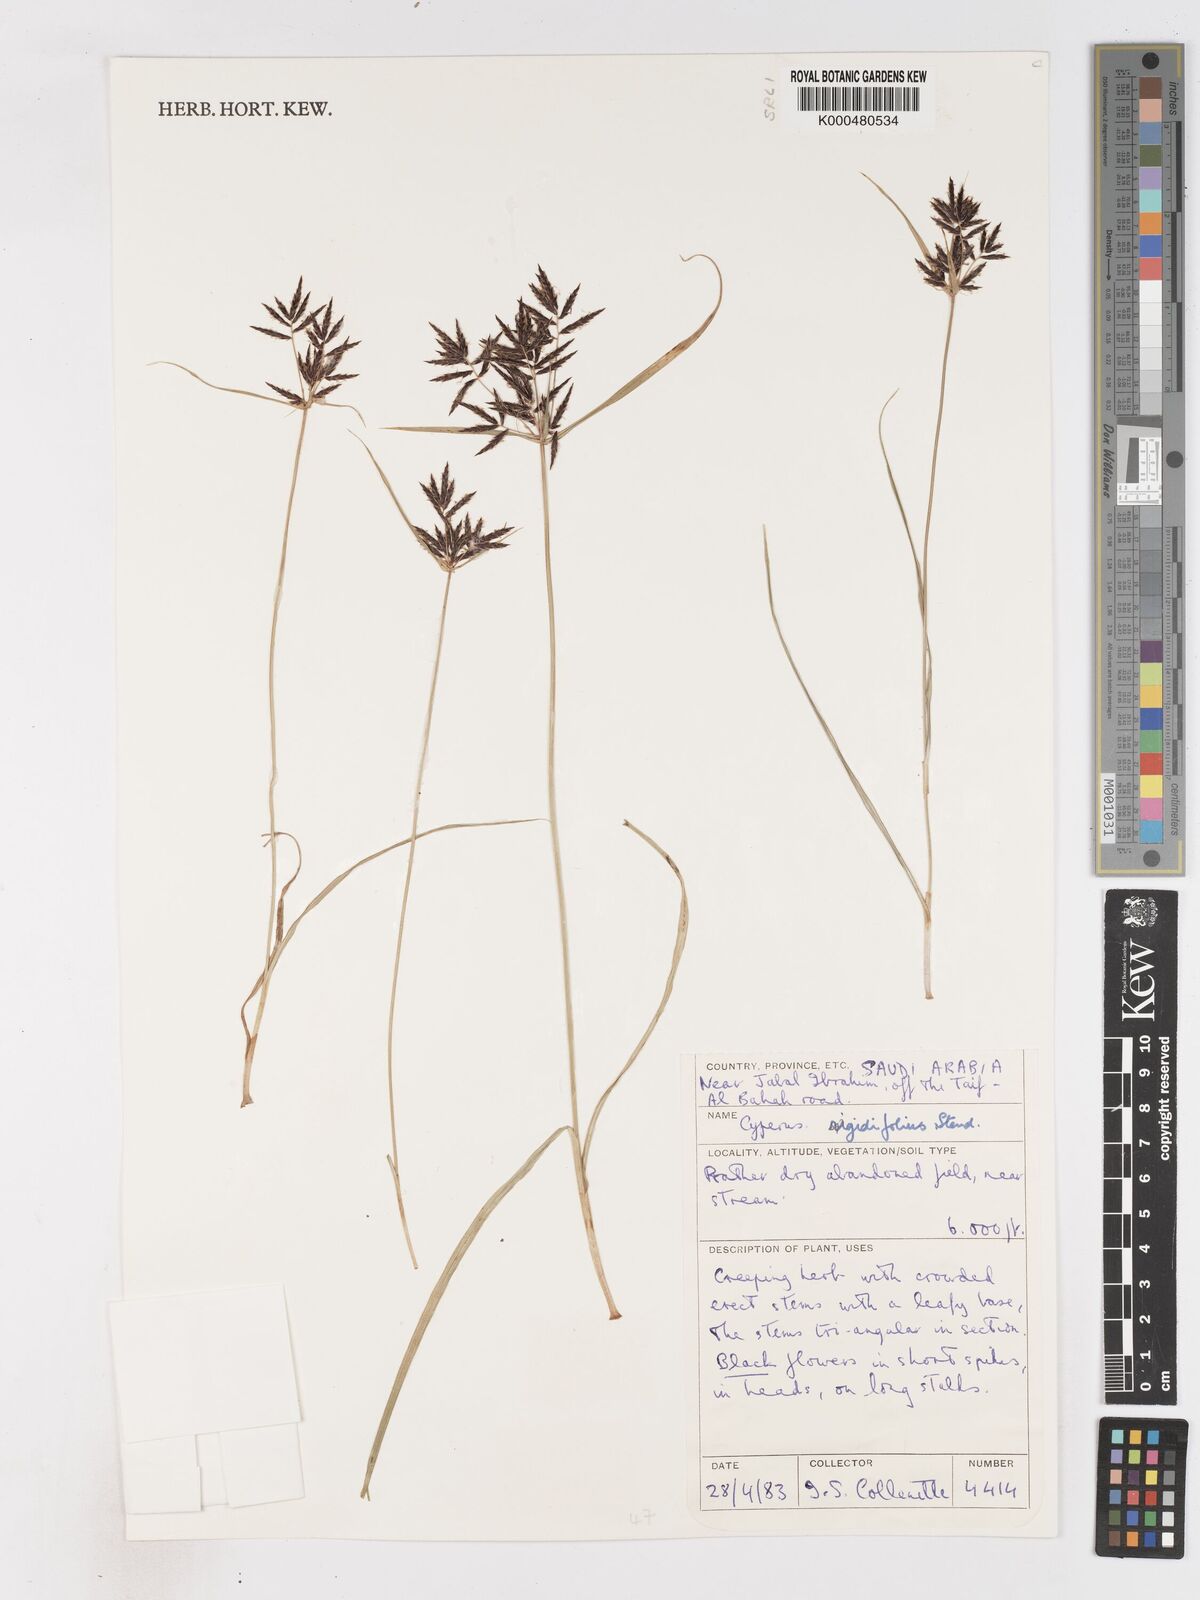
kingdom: Plantae
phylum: Tracheophyta
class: Liliopsida
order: Poales
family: Cyperaceae
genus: Cyperus
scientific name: Cyperus rigidifolius
